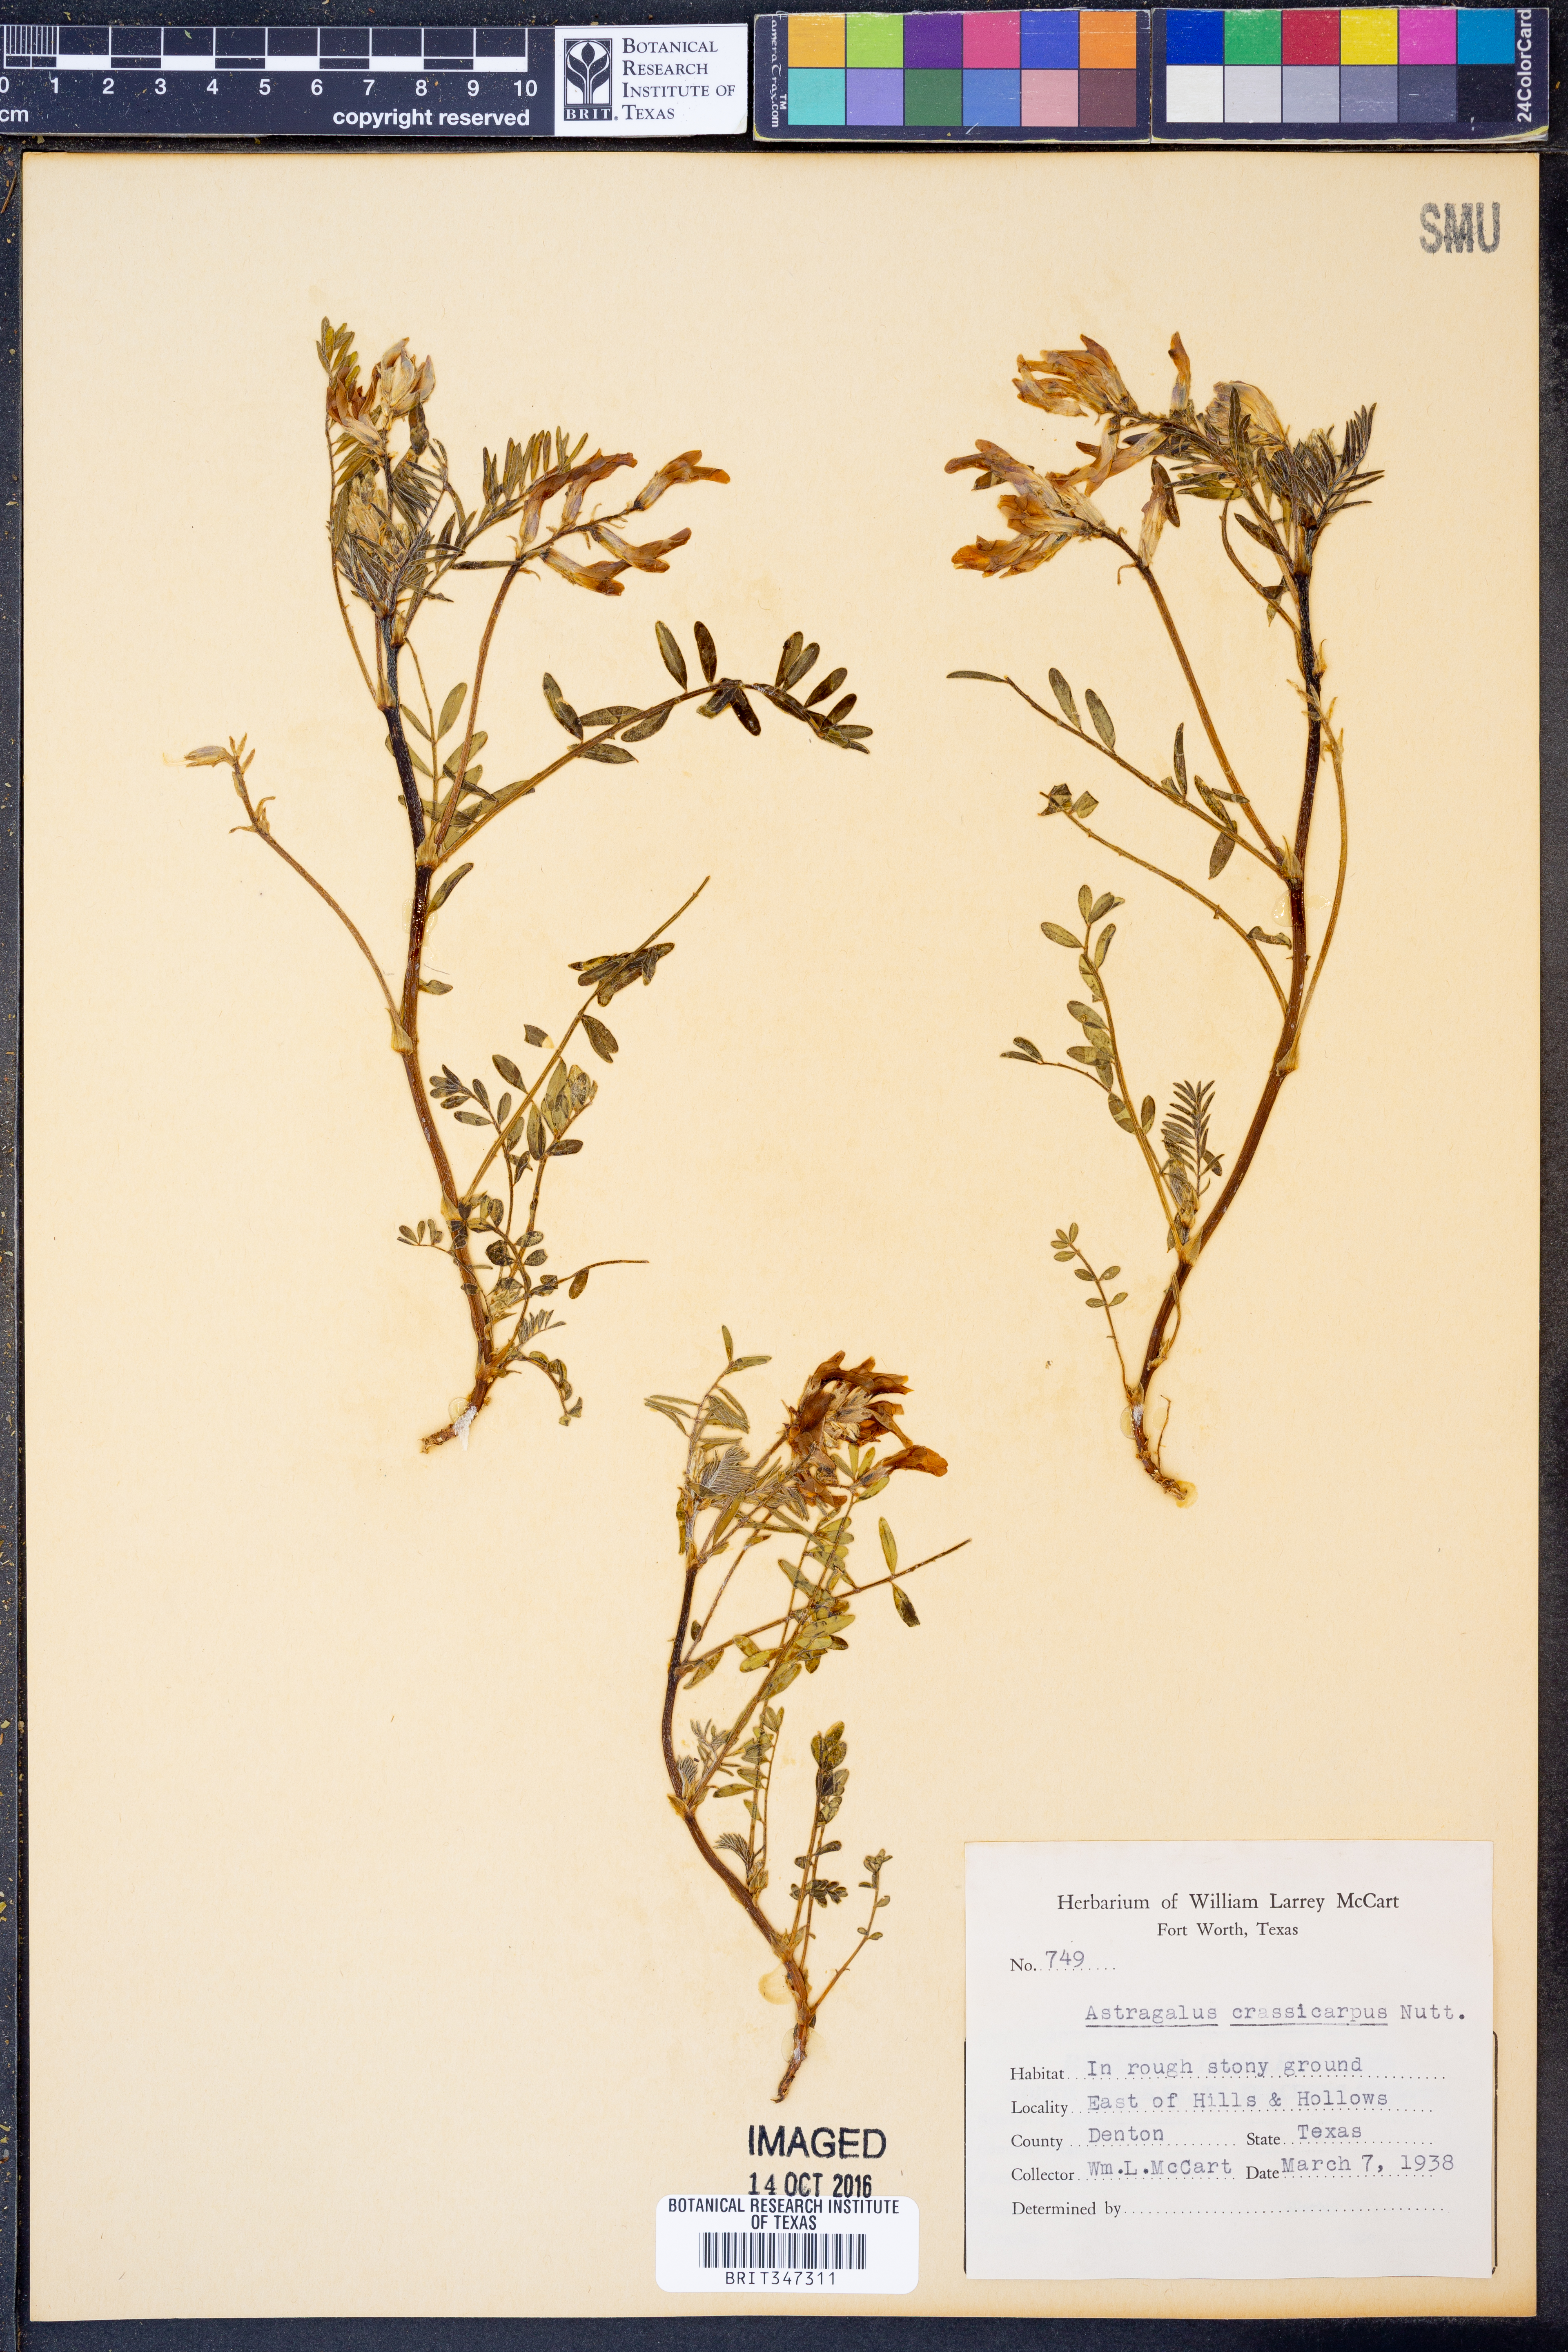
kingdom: Plantae
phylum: Tracheophyta
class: Magnoliopsida
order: Fabales
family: Fabaceae
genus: Astragalus
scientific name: Astragalus crassicarpus
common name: Ground-plum milk-vetch
